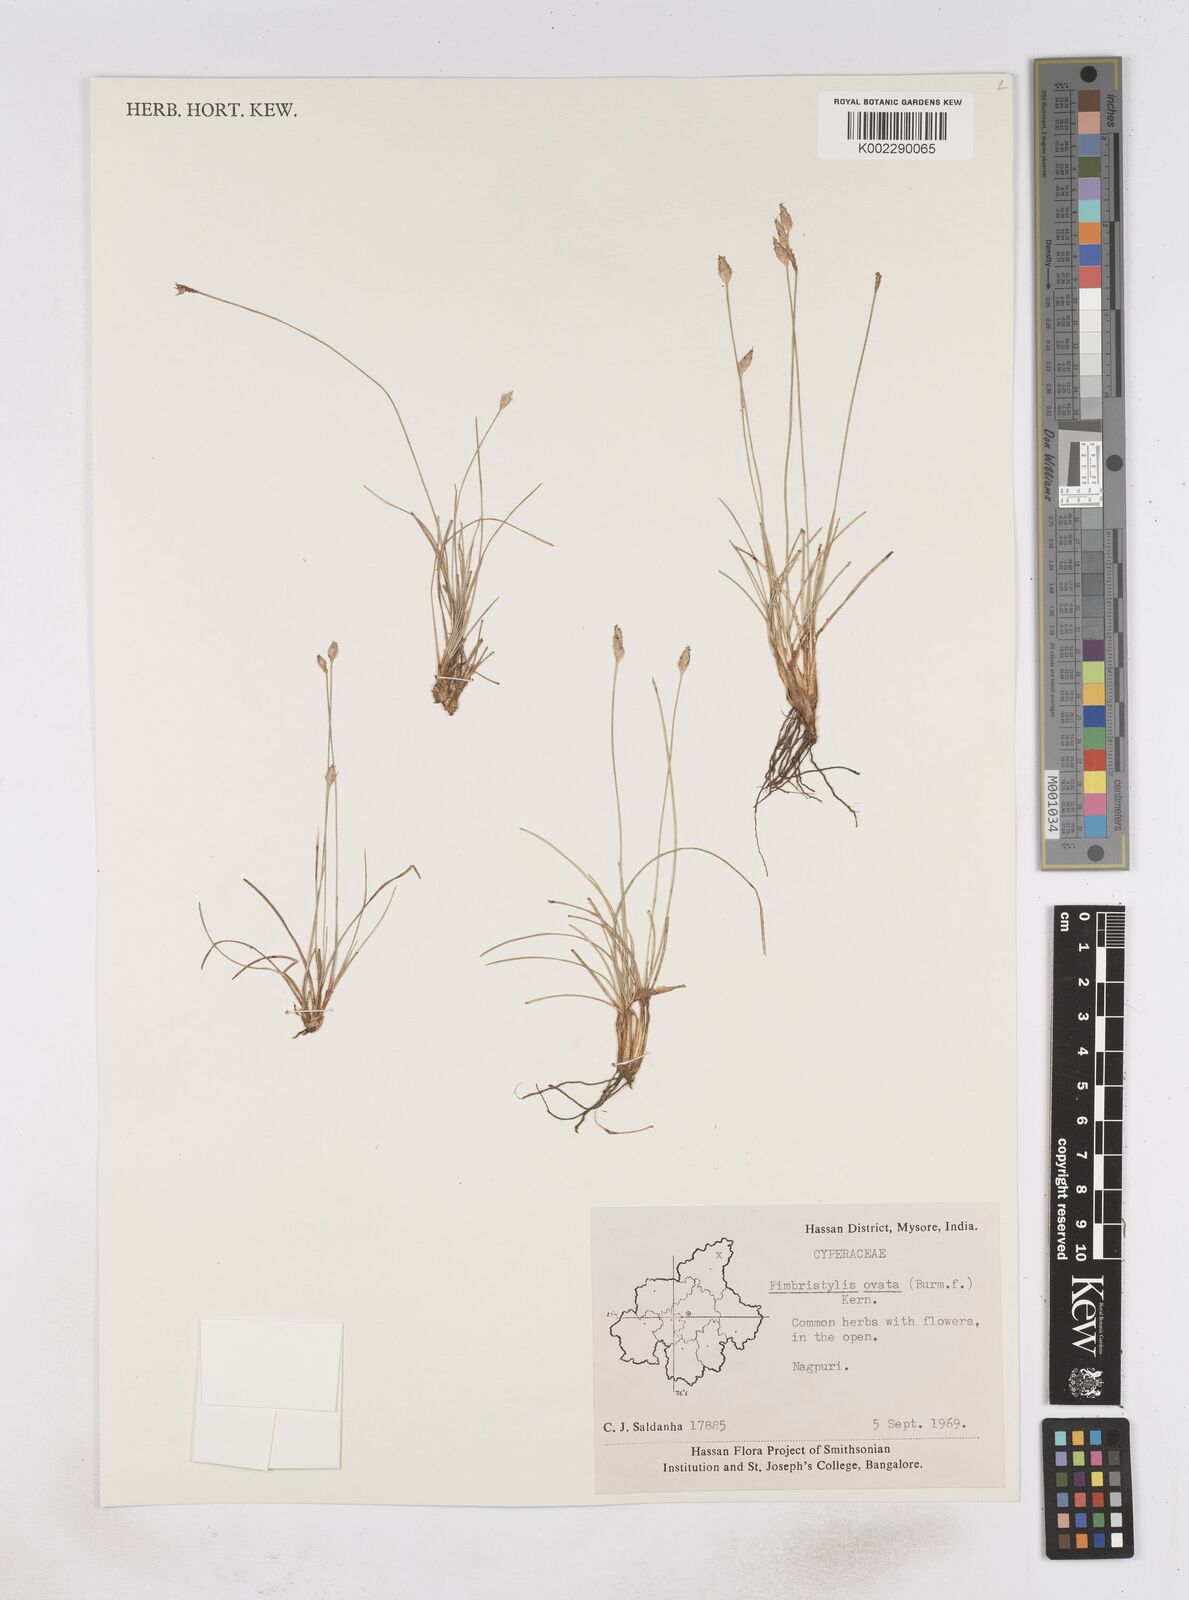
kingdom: Plantae
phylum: Tracheophyta
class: Liliopsida
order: Poales
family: Cyperaceae
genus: Abildgaardia
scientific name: Abildgaardia ovata
